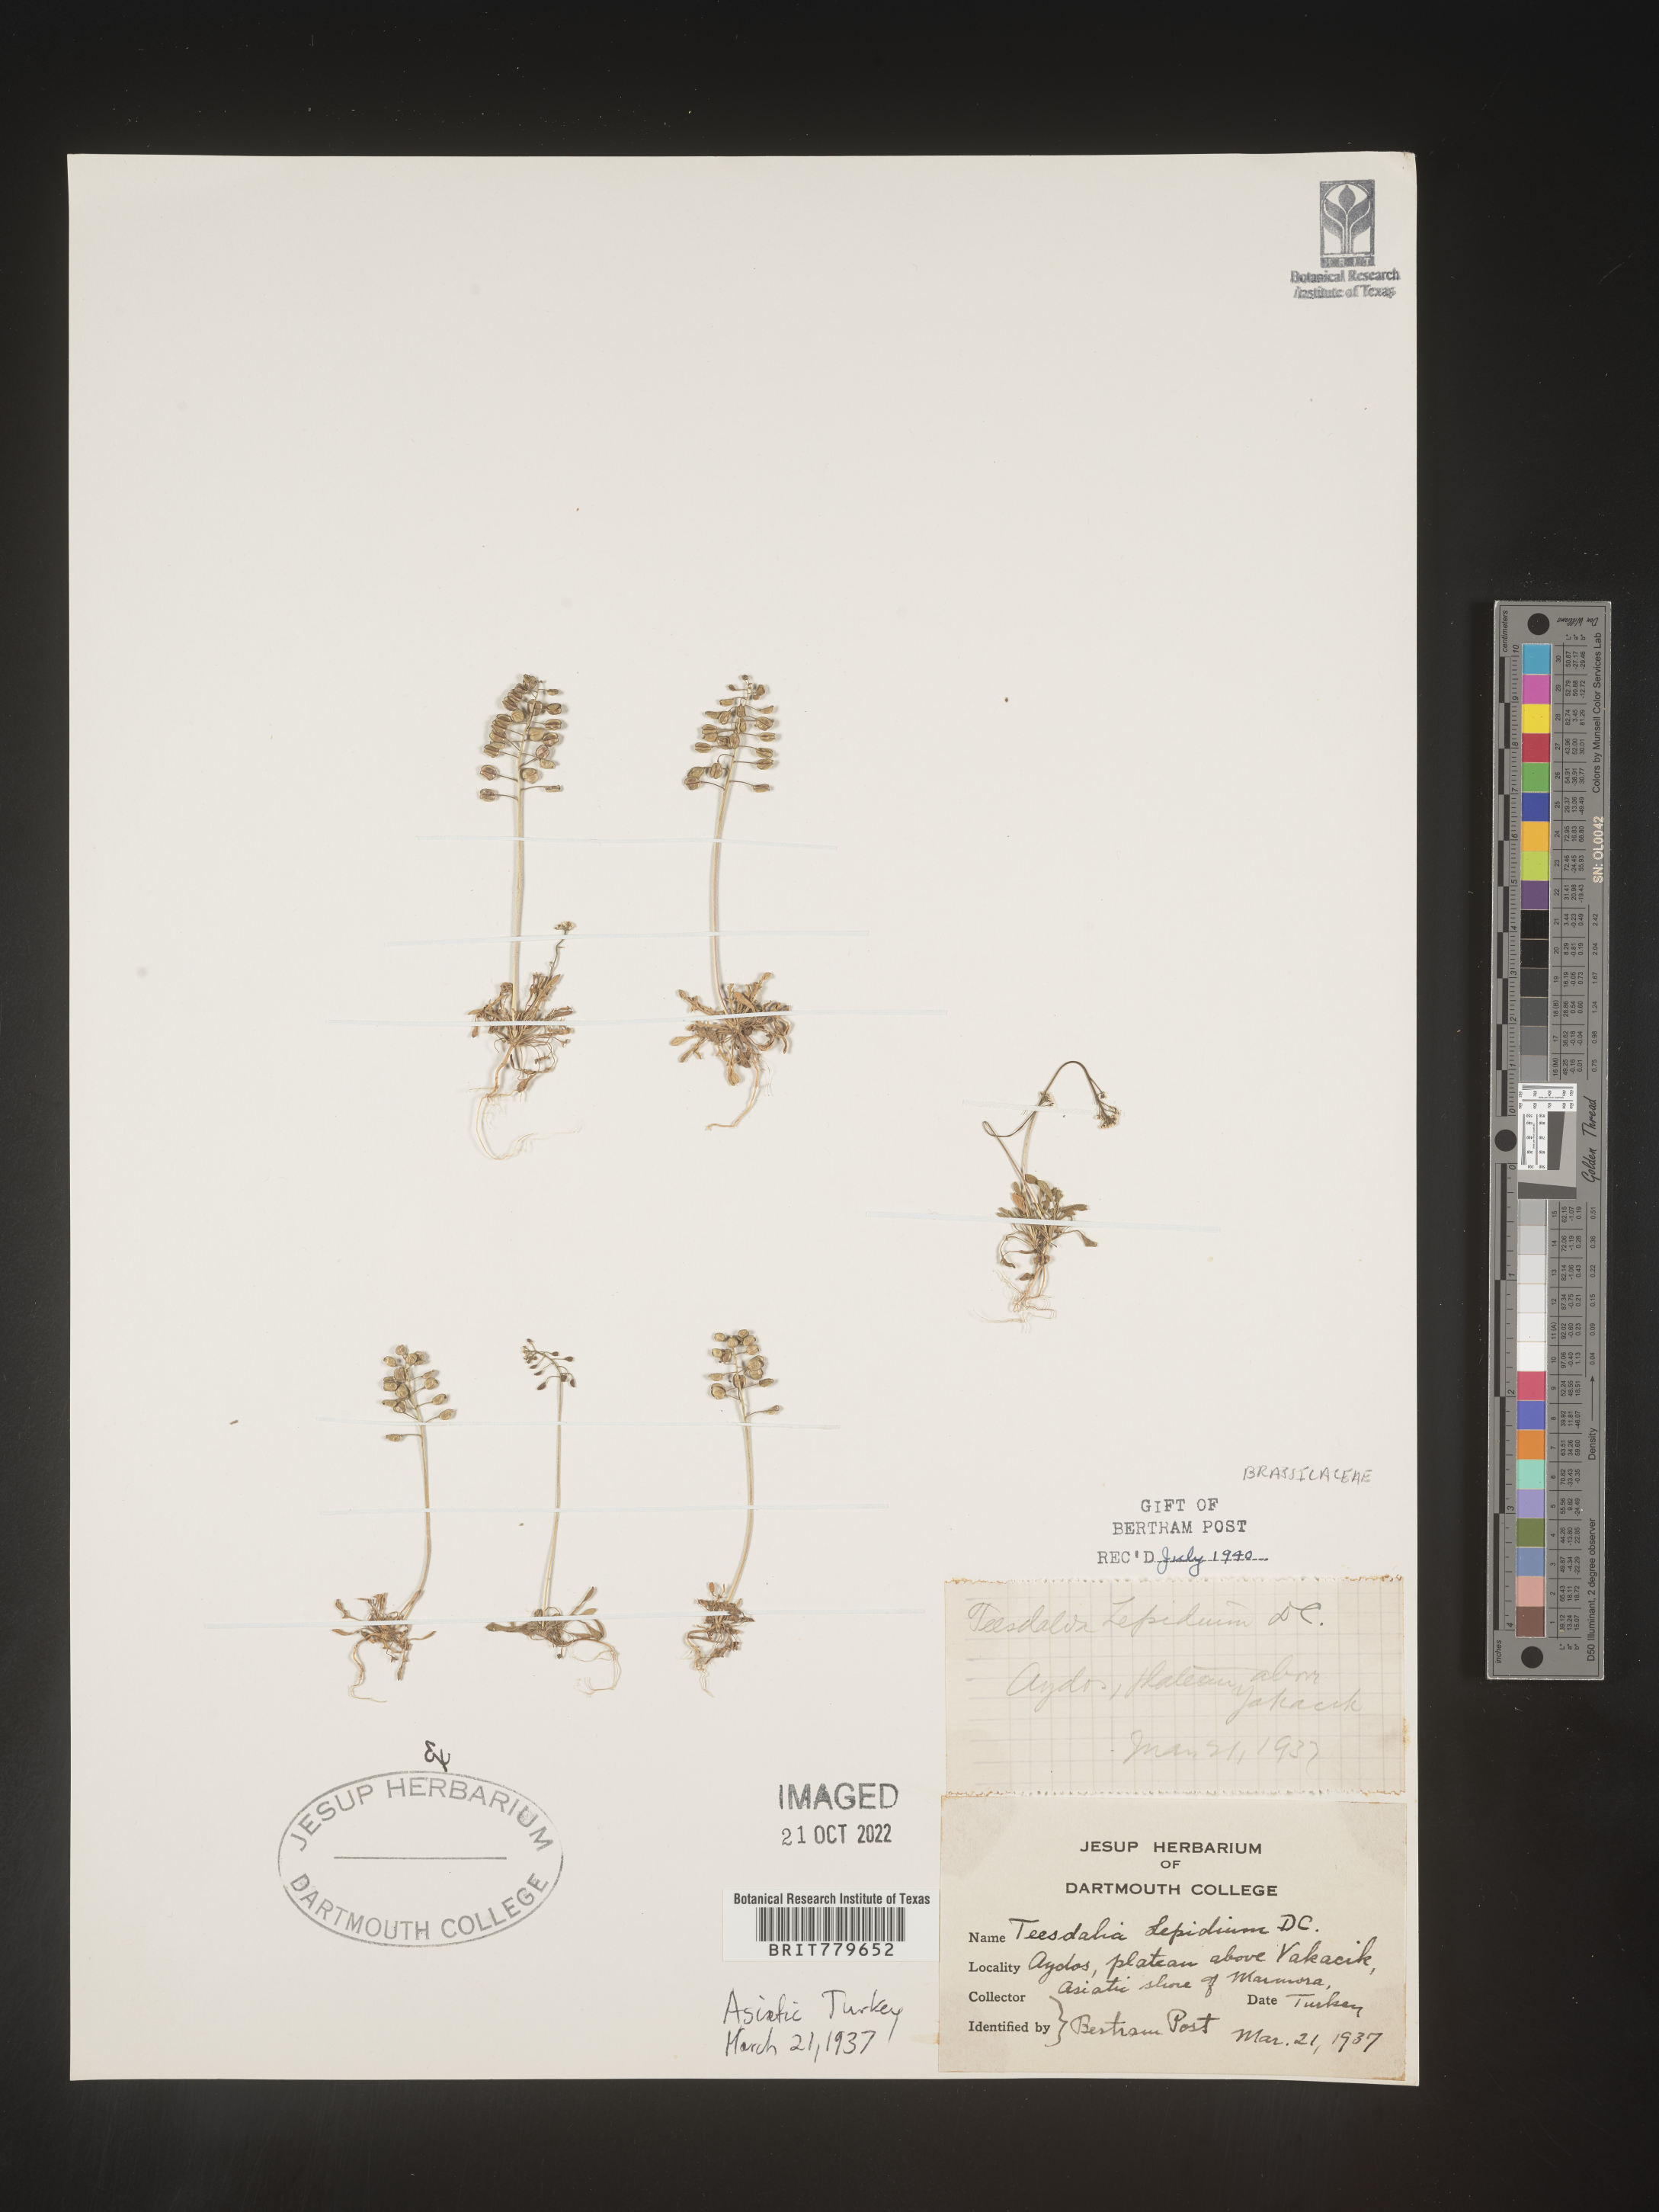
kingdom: Plantae
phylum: Tracheophyta
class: Magnoliopsida
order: Brassicales
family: Brassicaceae
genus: Teesdalia
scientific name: Teesdalia
